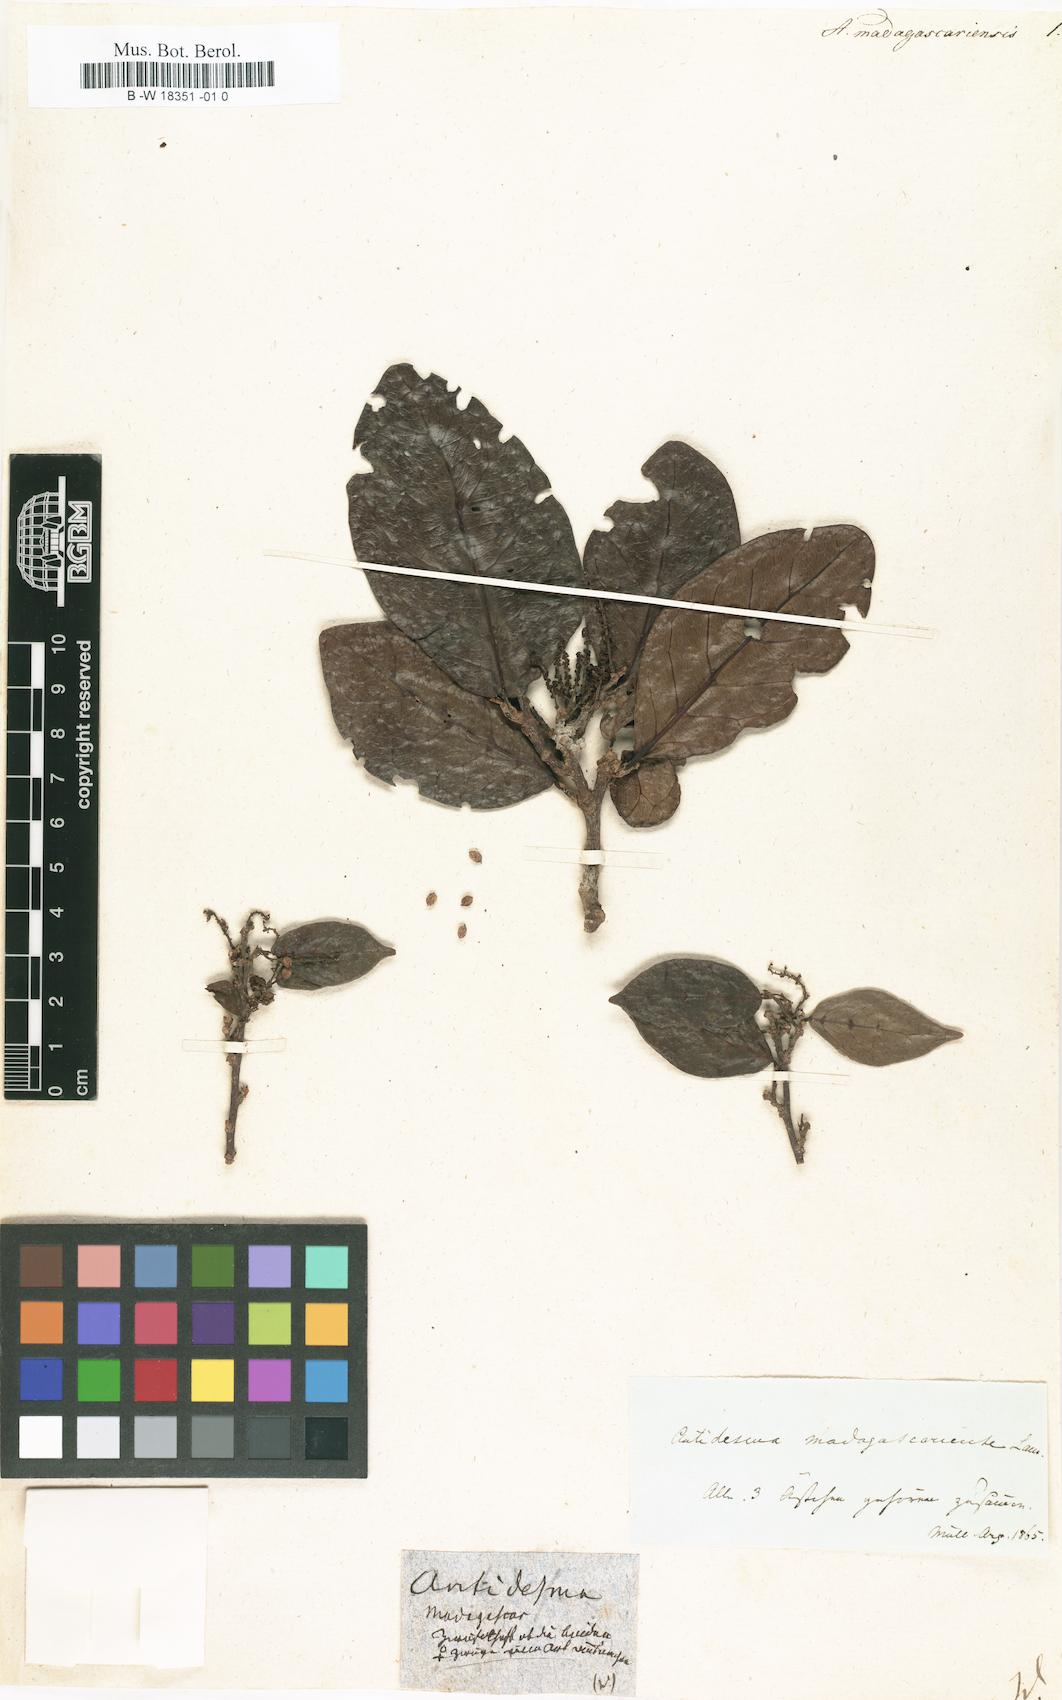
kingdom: Plantae
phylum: Tracheophyta
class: Magnoliopsida
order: Malpighiales
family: Phyllanthaceae
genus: Antidesma
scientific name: Antidesma madagascariense
